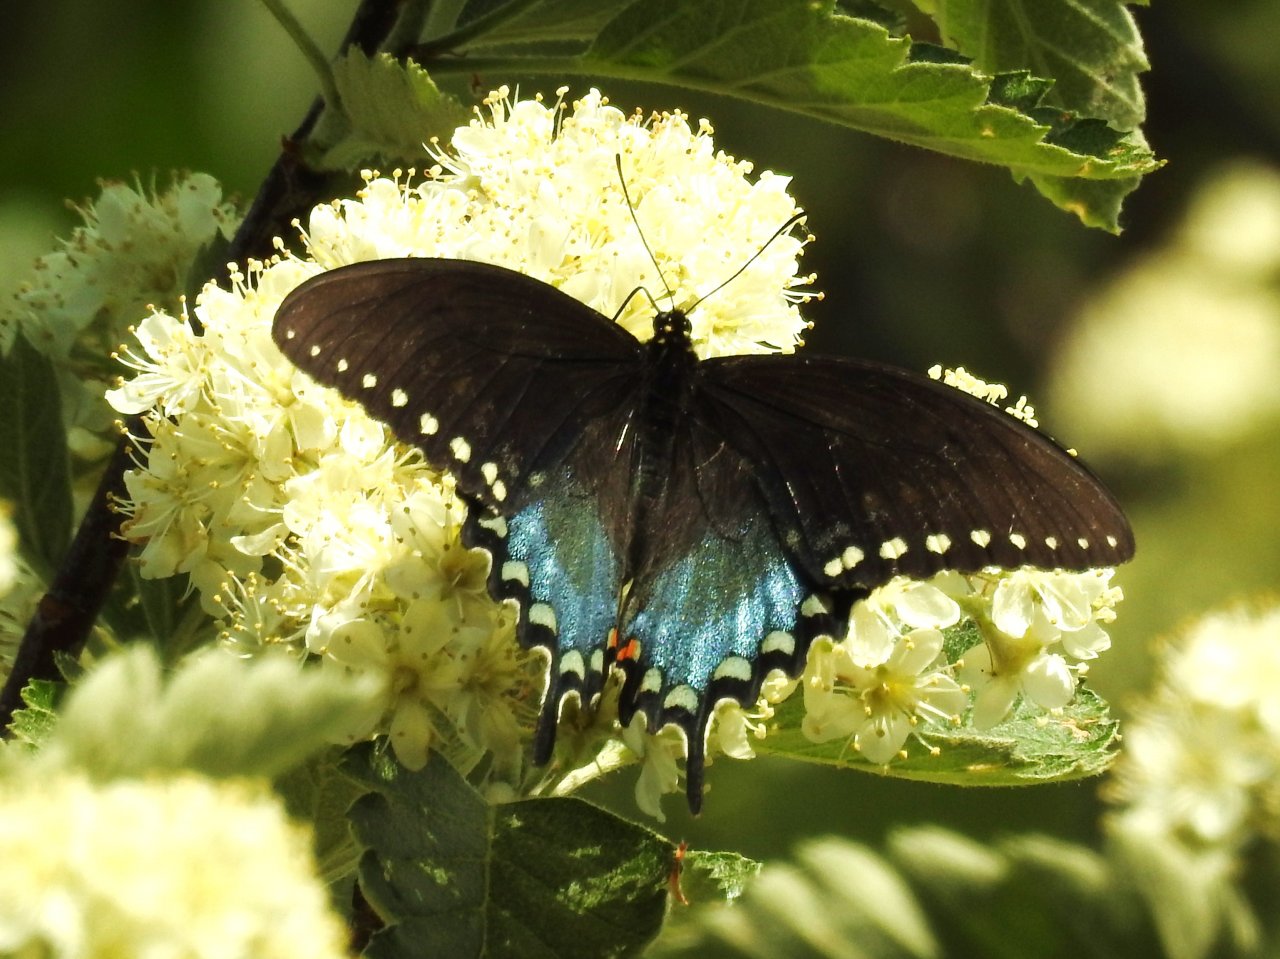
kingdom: Animalia
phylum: Arthropoda
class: Insecta
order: Lepidoptera
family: Papilionidae
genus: Pterourus
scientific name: Pterourus troilus
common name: Spicebush Swallowtail
